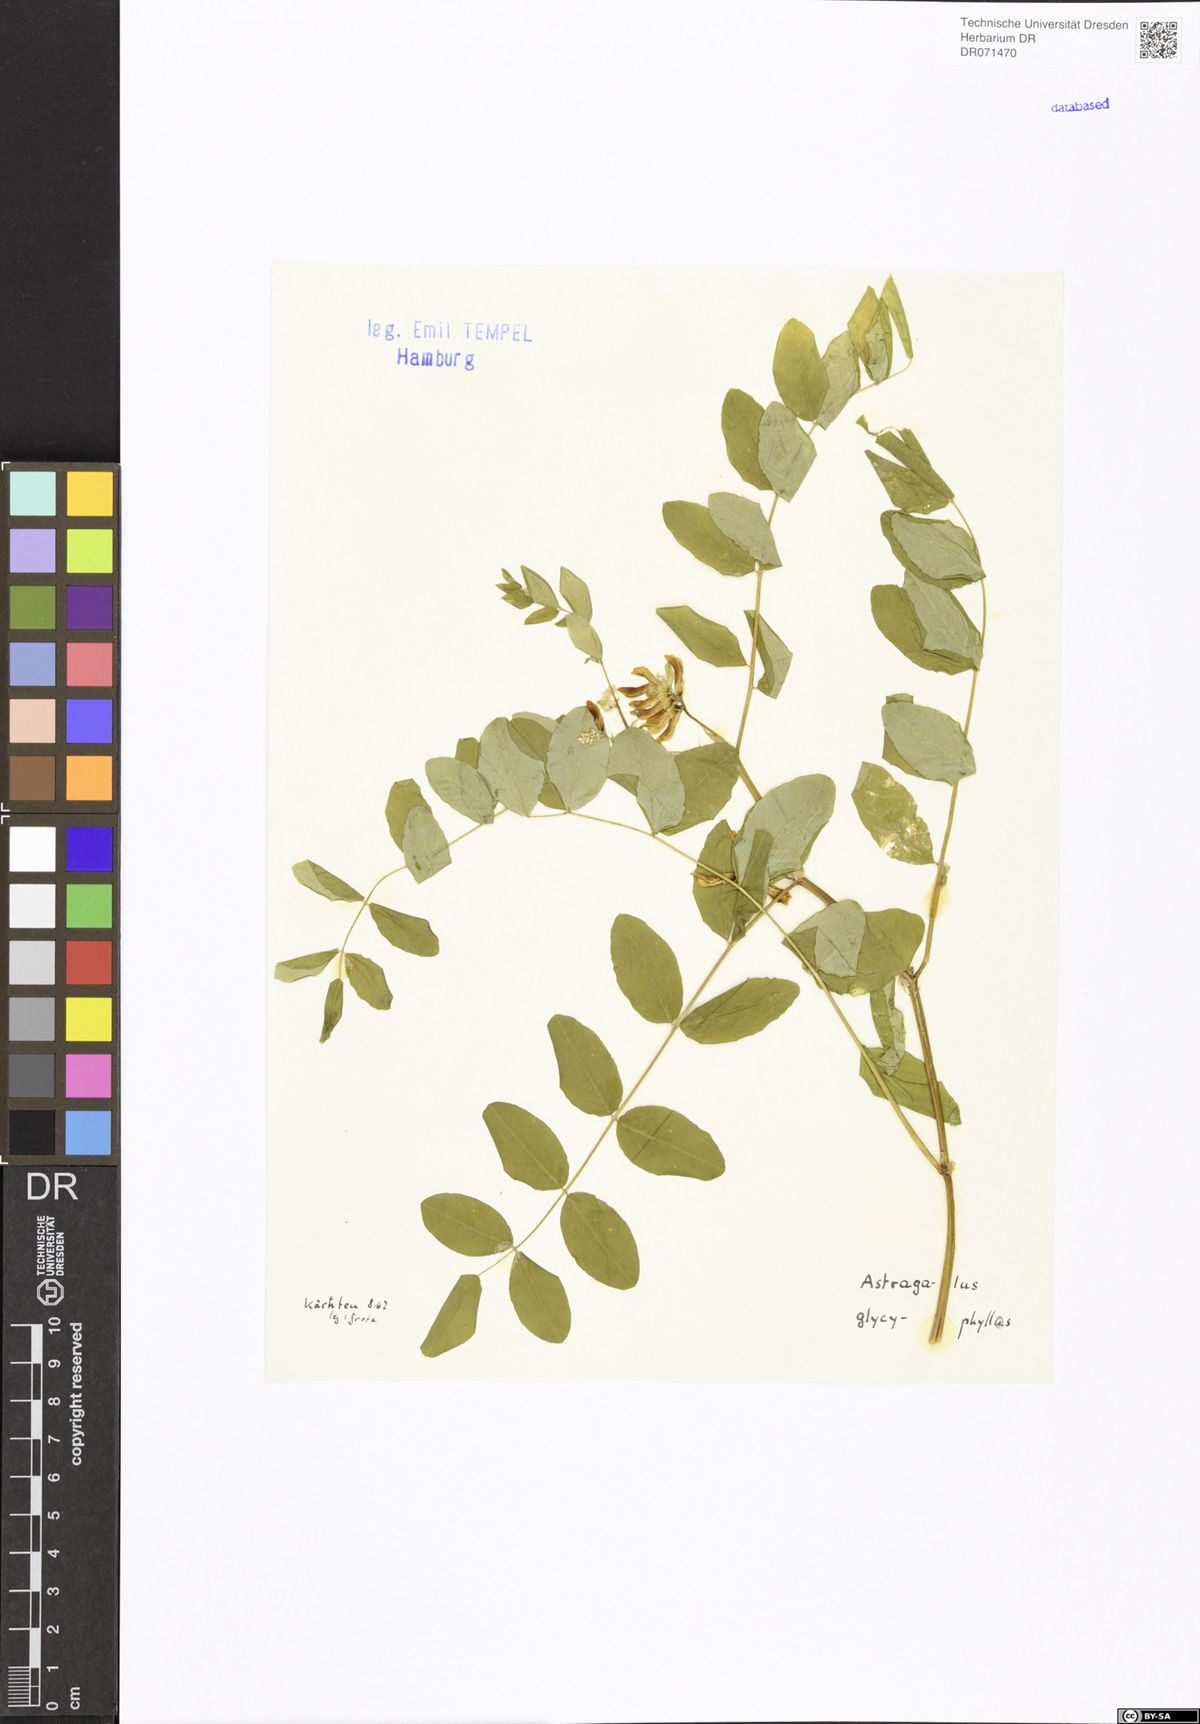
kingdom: Plantae
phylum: Tracheophyta
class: Magnoliopsida
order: Fabales
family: Fabaceae
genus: Astragalus
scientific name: Astragalus glycyphyllos
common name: Wild liquorice
